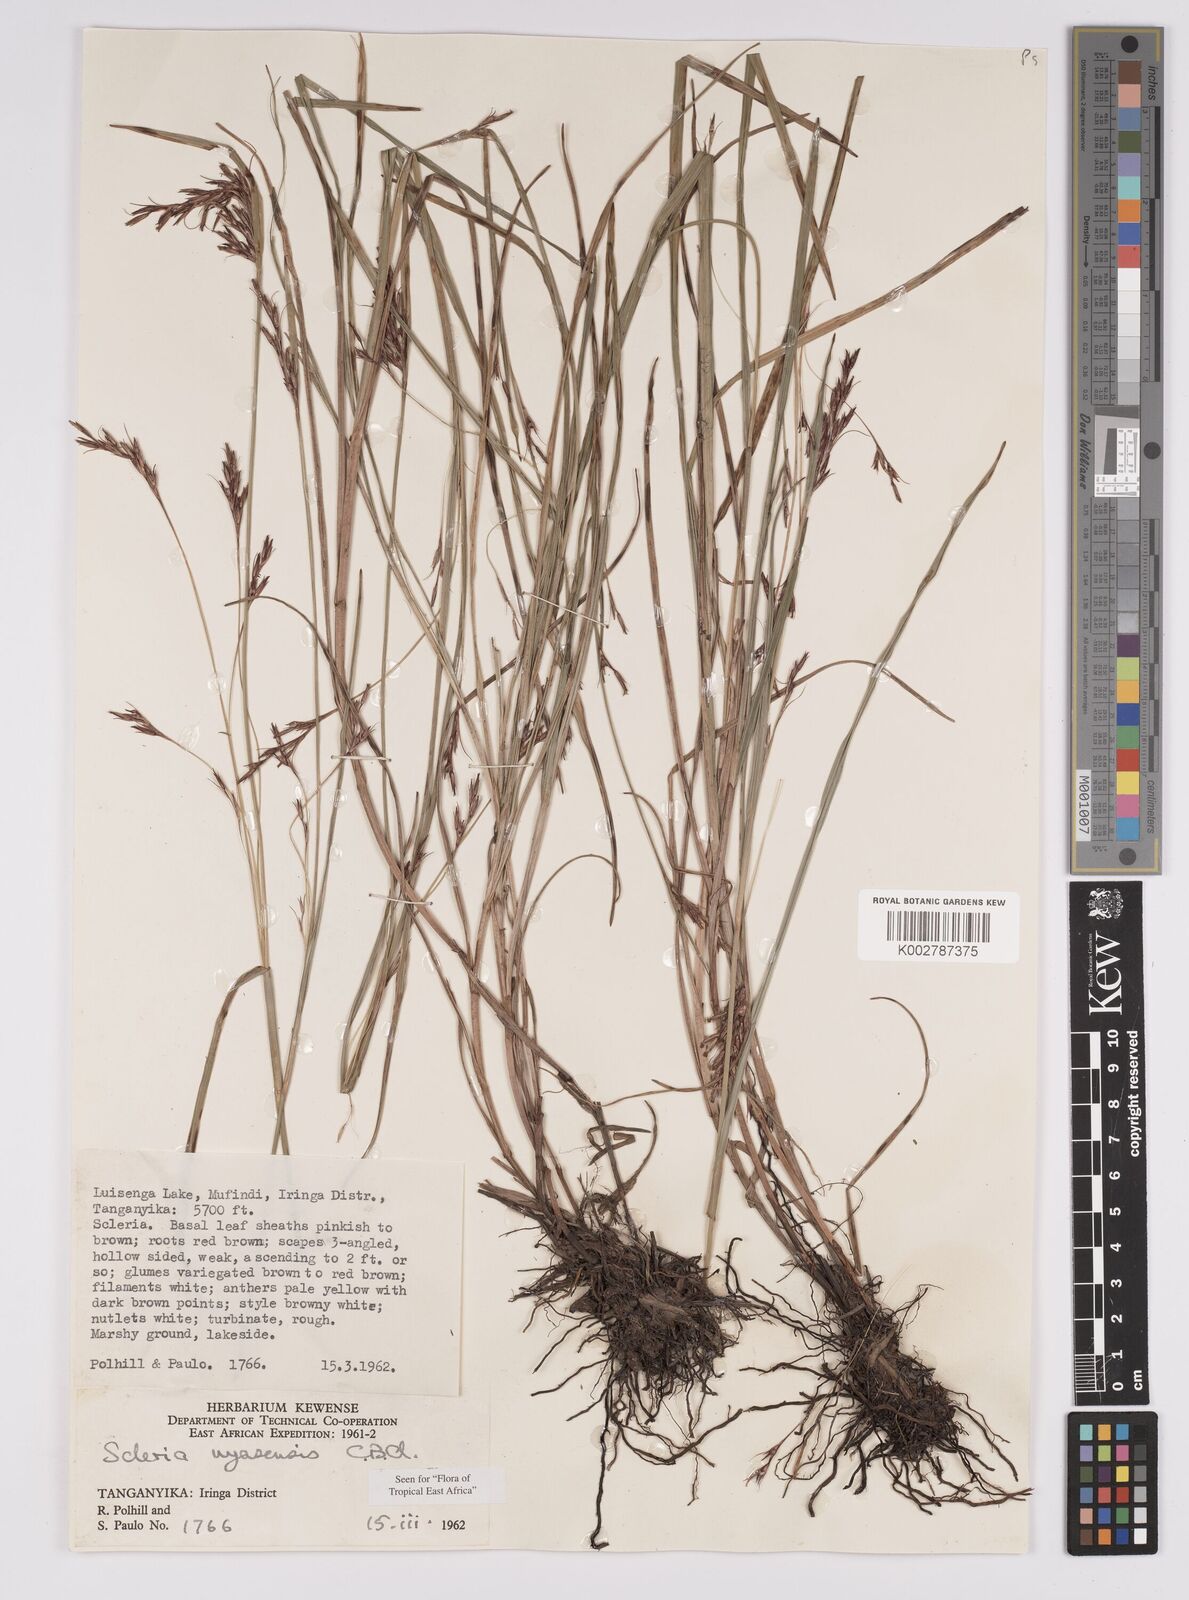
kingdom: Plantae
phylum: Tracheophyta
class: Liliopsida
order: Poales
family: Cyperaceae
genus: Scleria
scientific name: Scleria nyasensis
